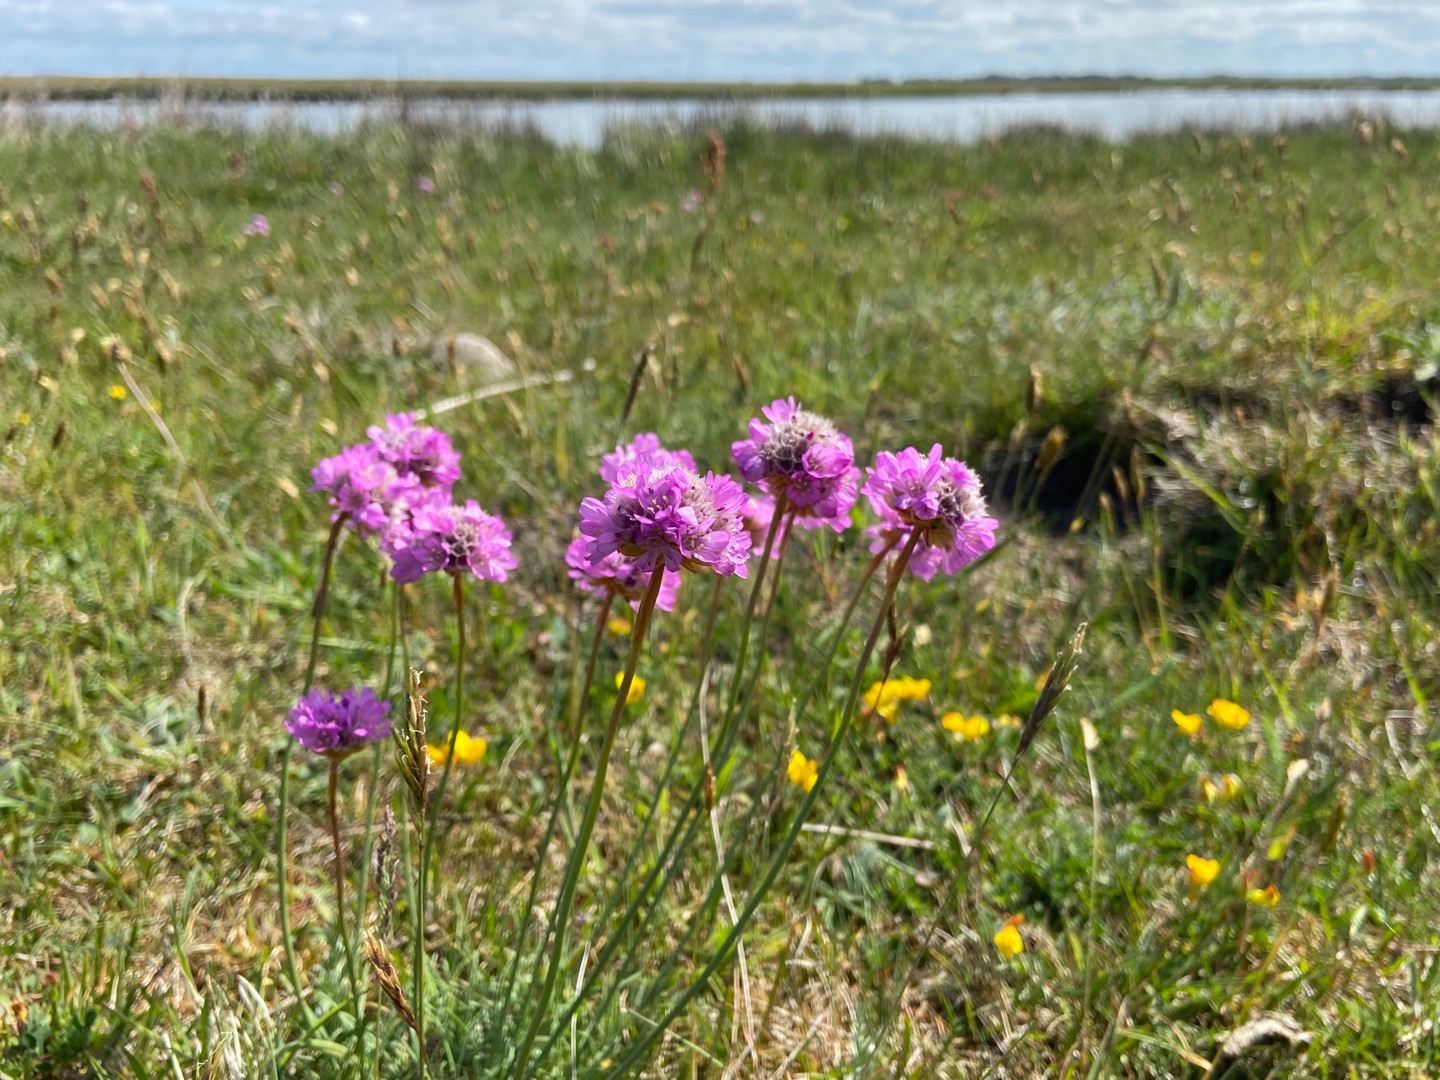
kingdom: Plantae
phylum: Tracheophyta
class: Magnoliopsida
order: Caryophyllales
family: Plumbaginaceae
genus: Armeria
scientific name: Armeria maritima
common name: Engelskgræs
